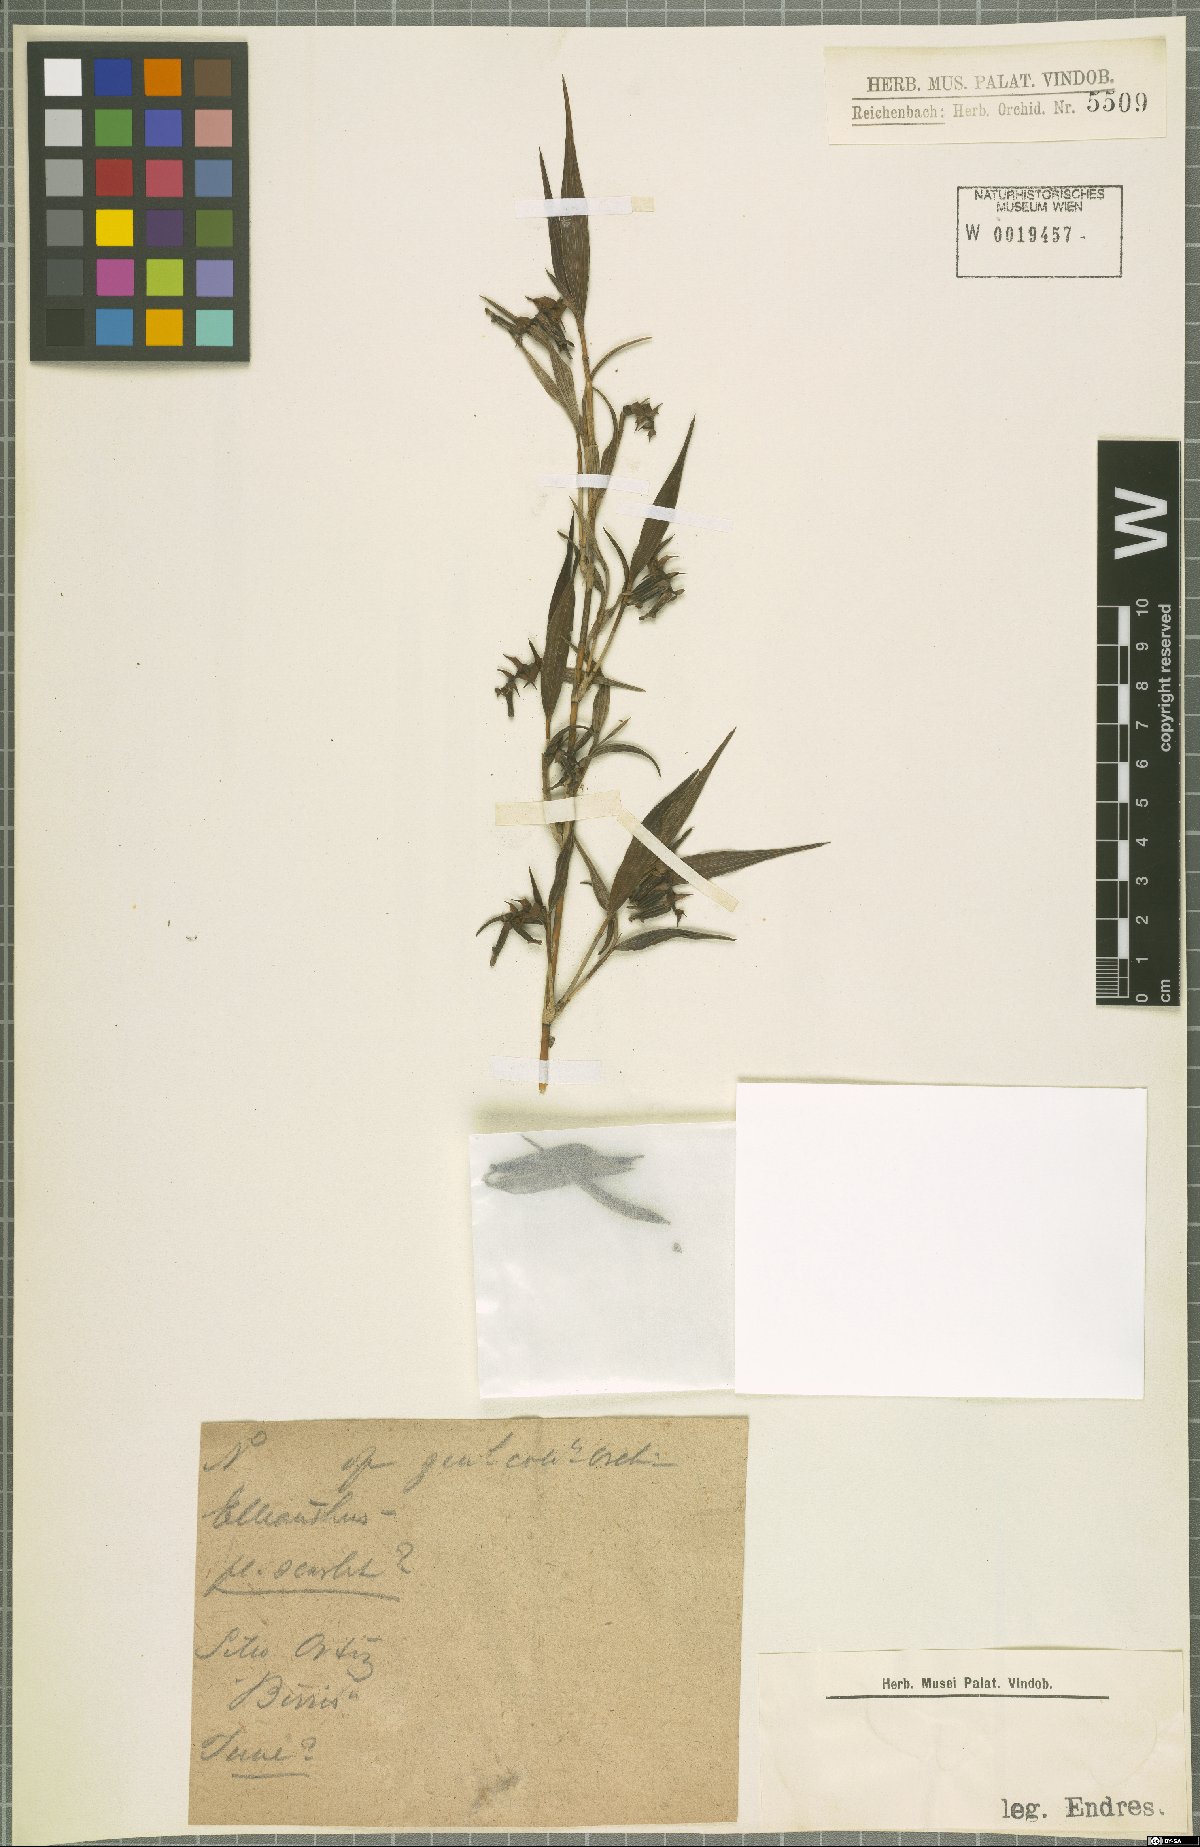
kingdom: Plantae
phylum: Tracheophyta
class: Liliopsida
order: Asparagales
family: Orchidaceae
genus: Elleanthus
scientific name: Elleanthus
